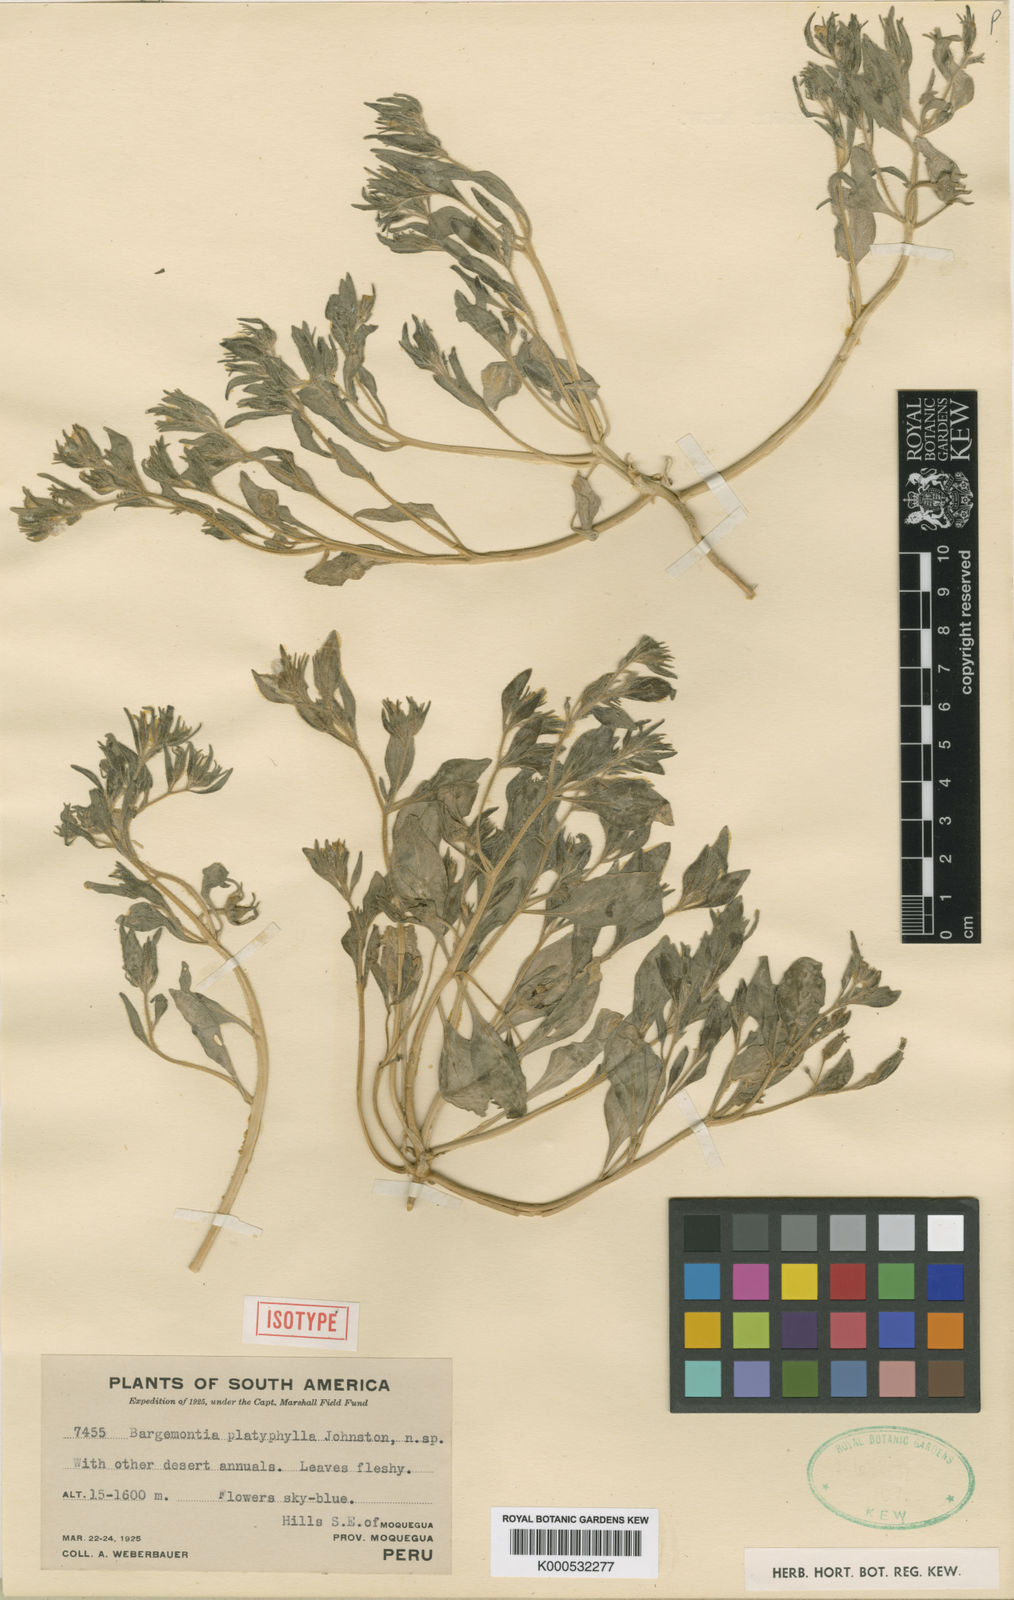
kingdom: Plantae
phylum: Tracheophyta
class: Magnoliopsida
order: Solanales
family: Solanaceae
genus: Nolana
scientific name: Nolana laxa
